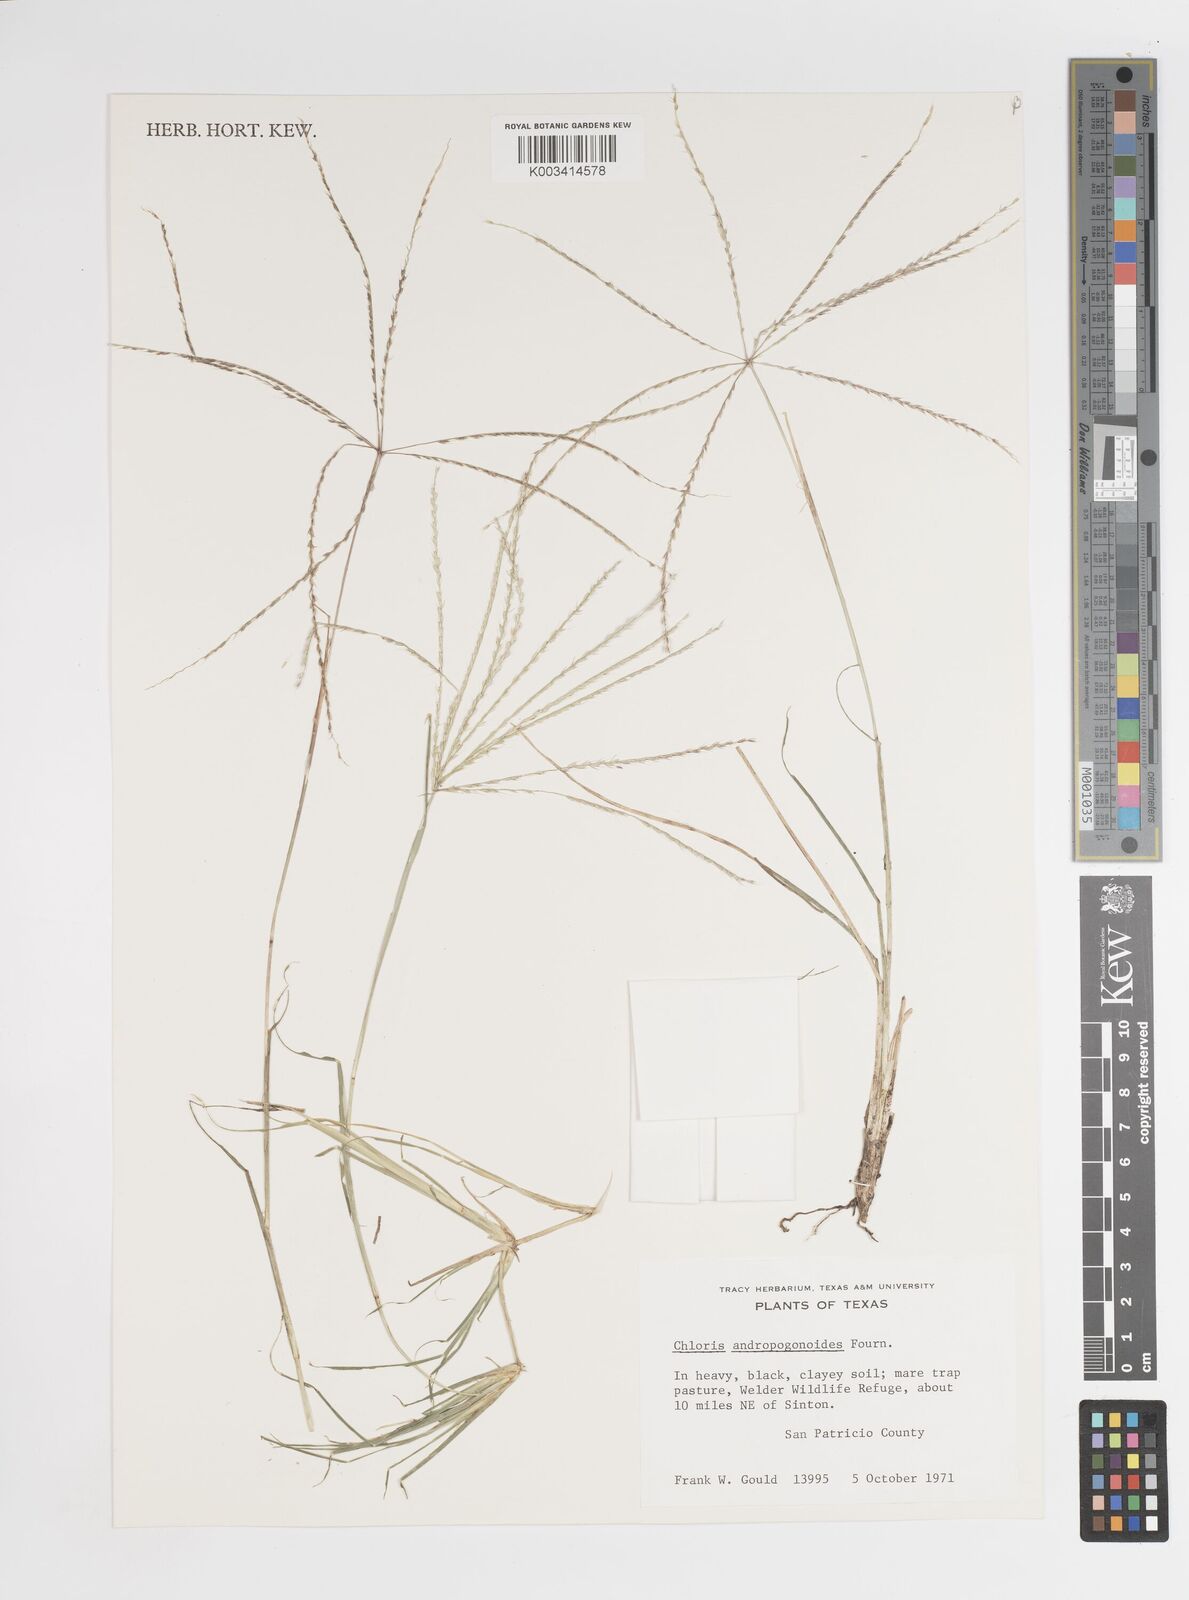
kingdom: Plantae
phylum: Tracheophyta
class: Liliopsida
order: Poales
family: Poaceae
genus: Chloris
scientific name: Chloris andropogonoides
